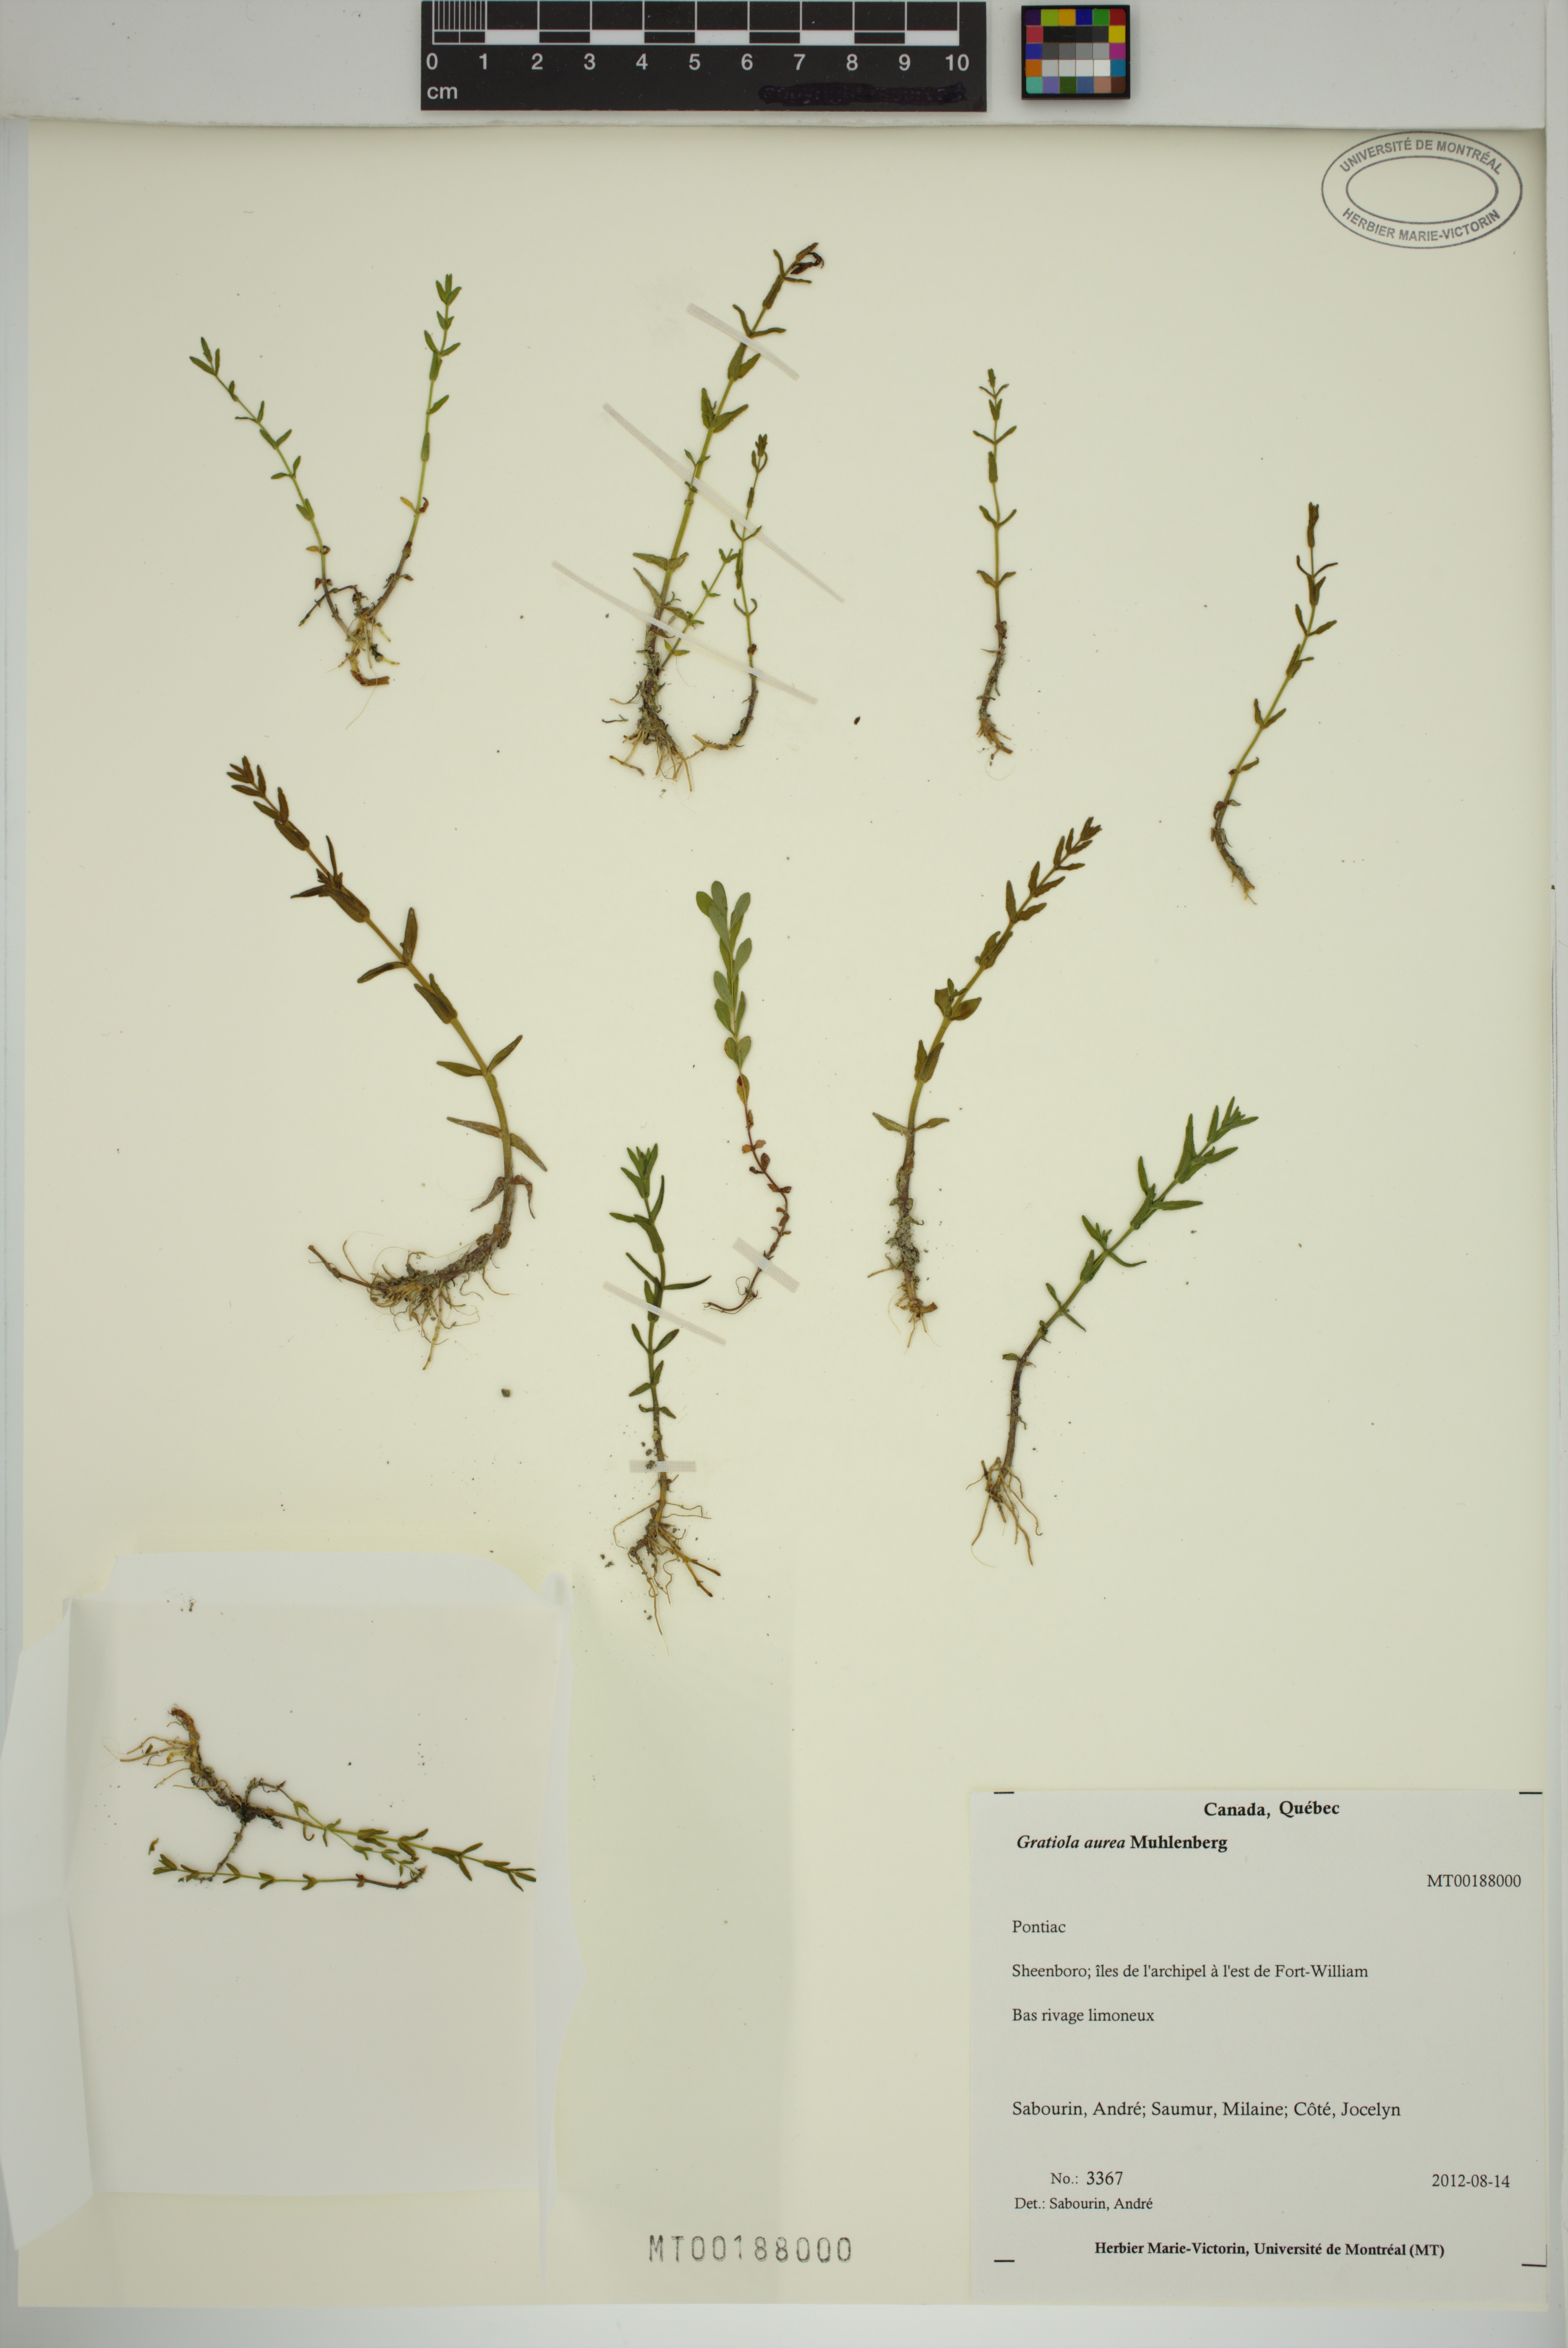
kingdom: Plantae
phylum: Tracheophyta
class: Magnoliopsida
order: Lamiales
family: Plantaginaceae
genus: Gratiola
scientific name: Gratiola lutea
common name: Golden hedge-hyssop
